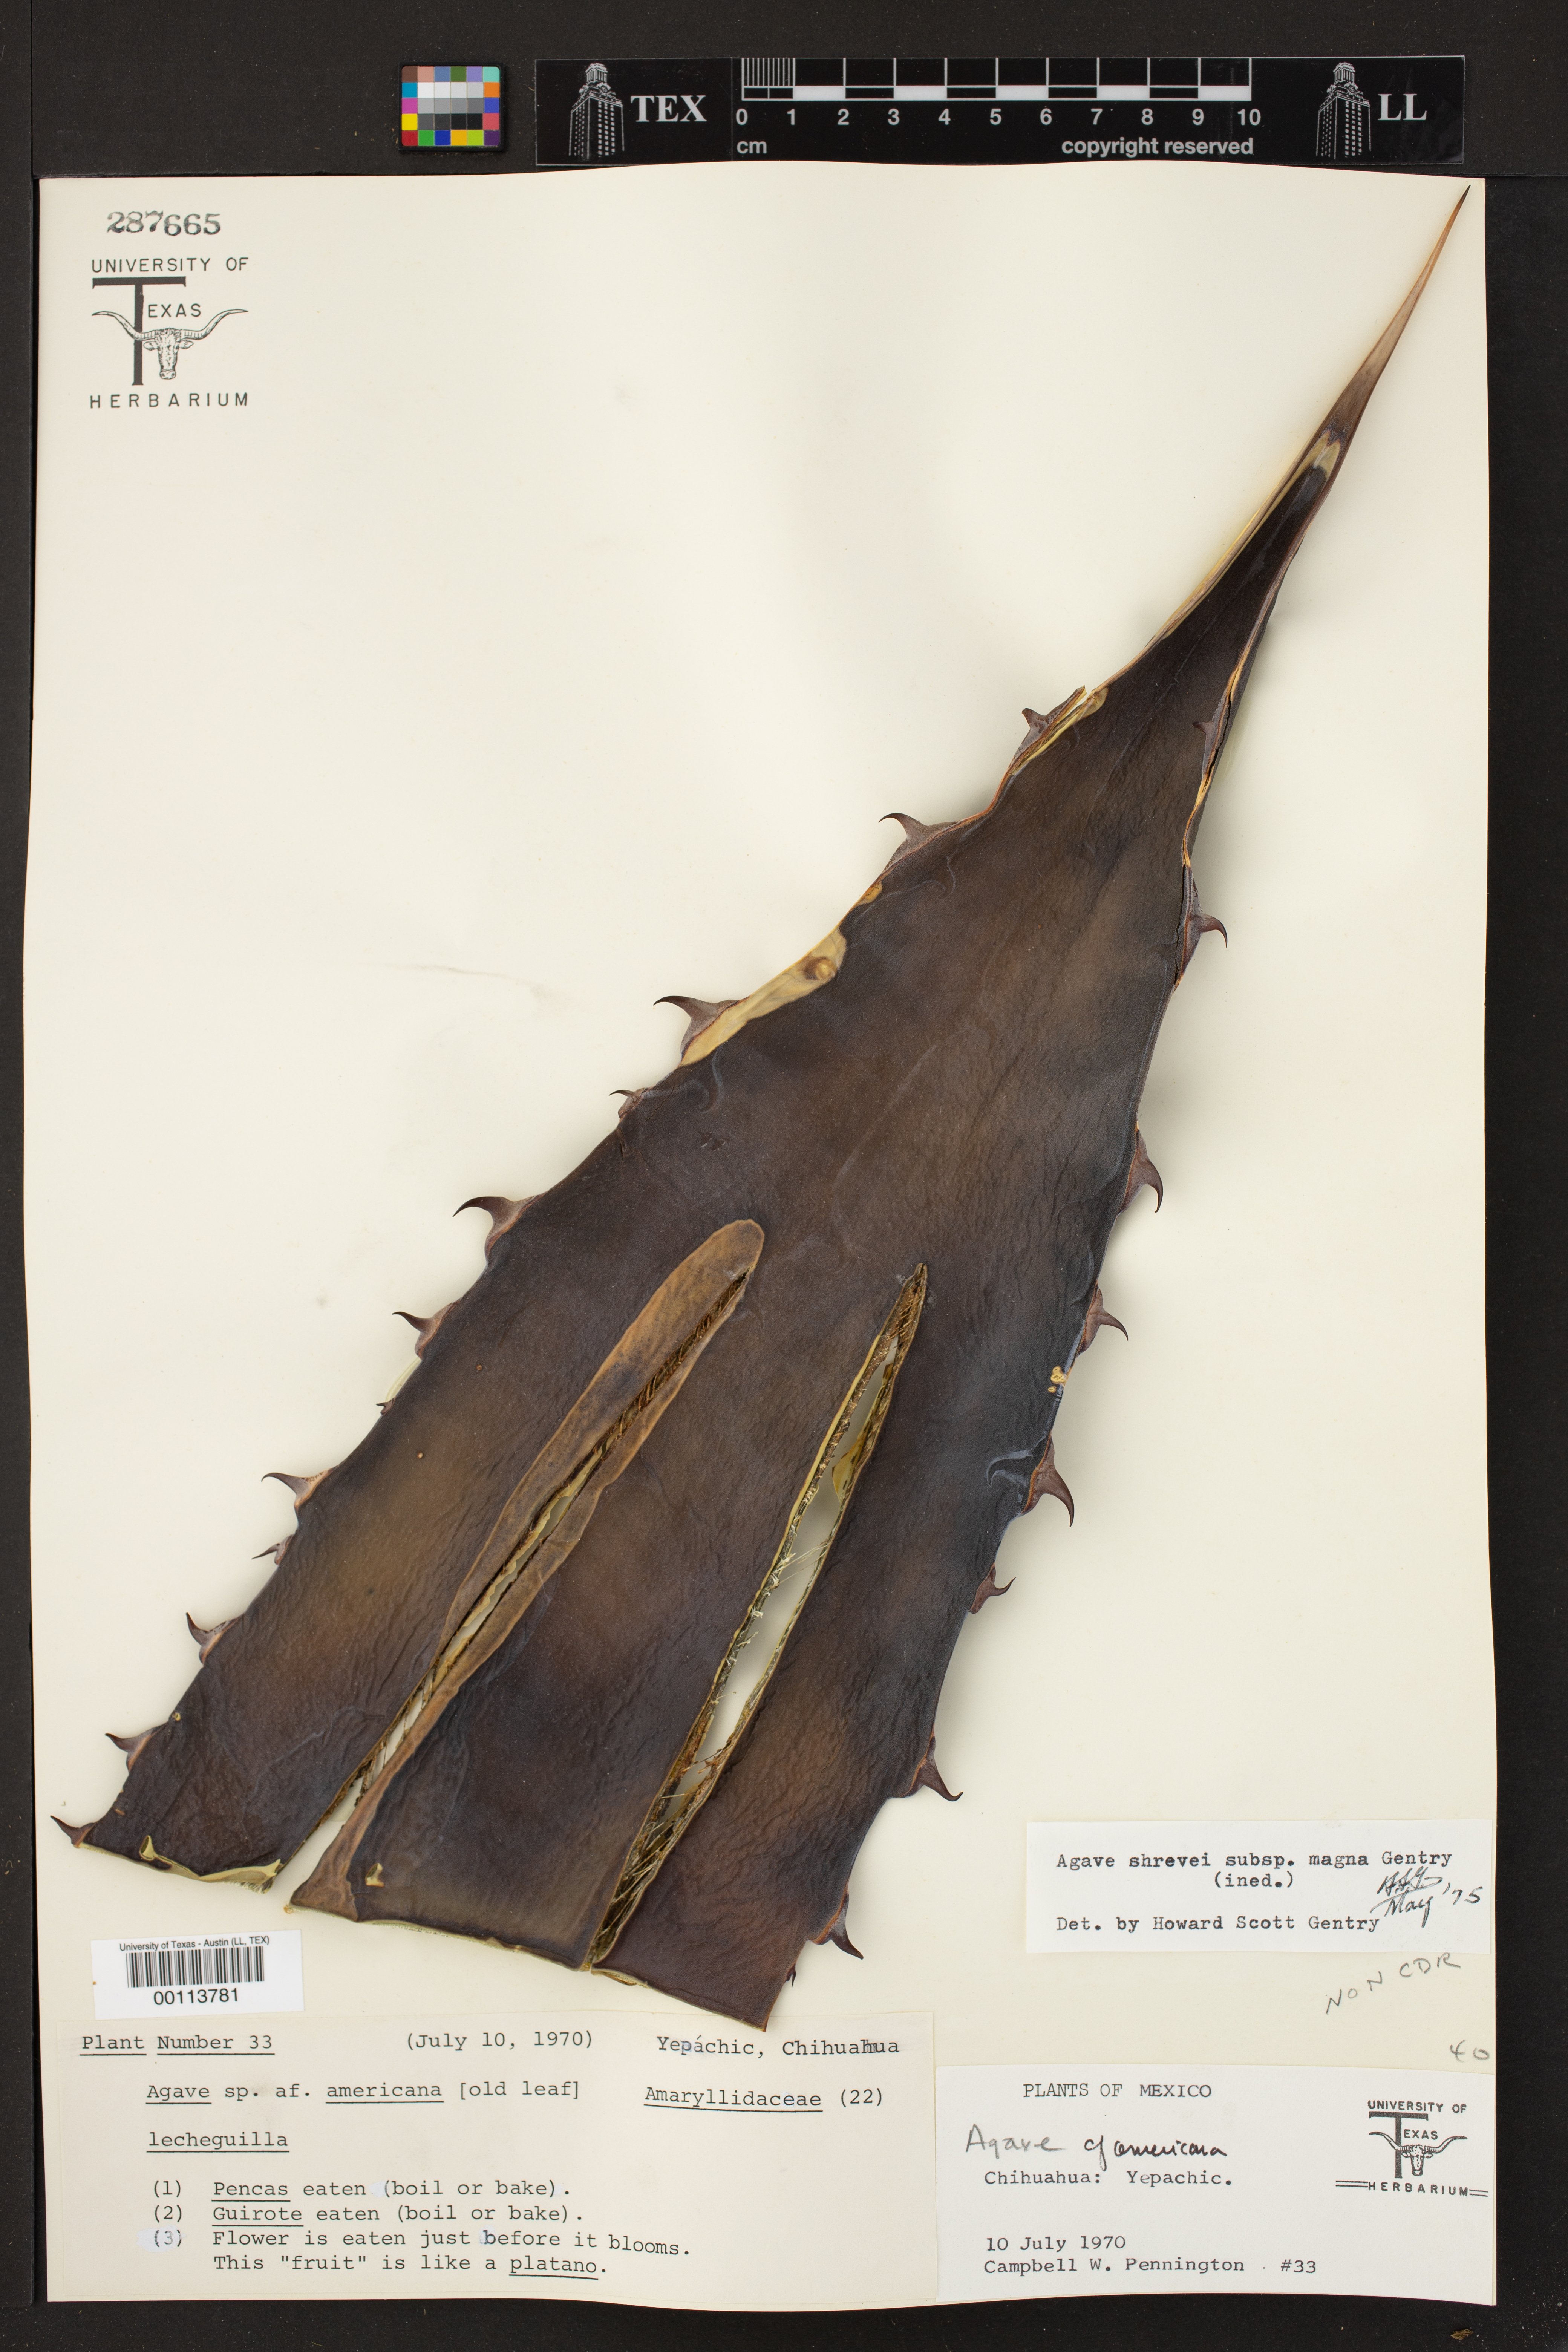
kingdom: Plantae
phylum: Tracheophyta
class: Liliopsida
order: Asparagales
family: Asparagaceae
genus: Agave
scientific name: Agave shrevei
